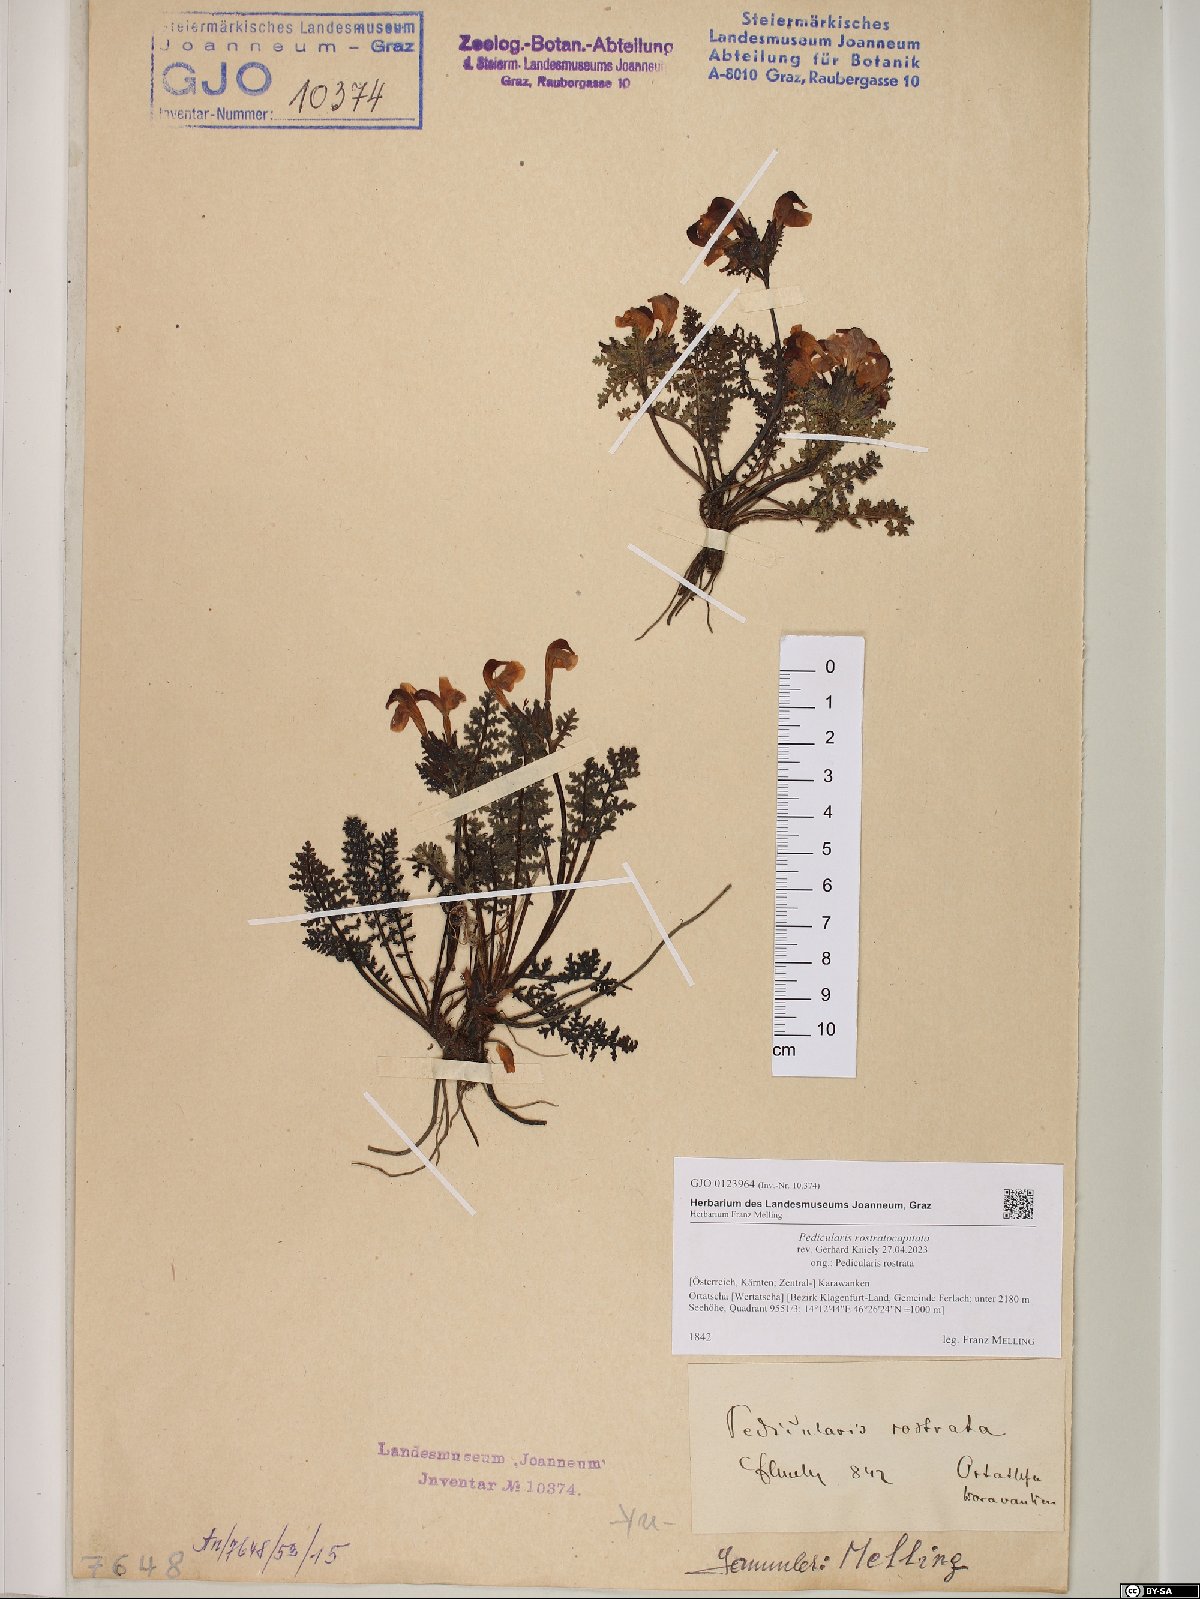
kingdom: Plantae
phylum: Tracheophyta
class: Magnoliopsida
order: Lamiales
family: Orobanchaceae
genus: Pedicularis
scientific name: Pedicularis rostratocapitata
